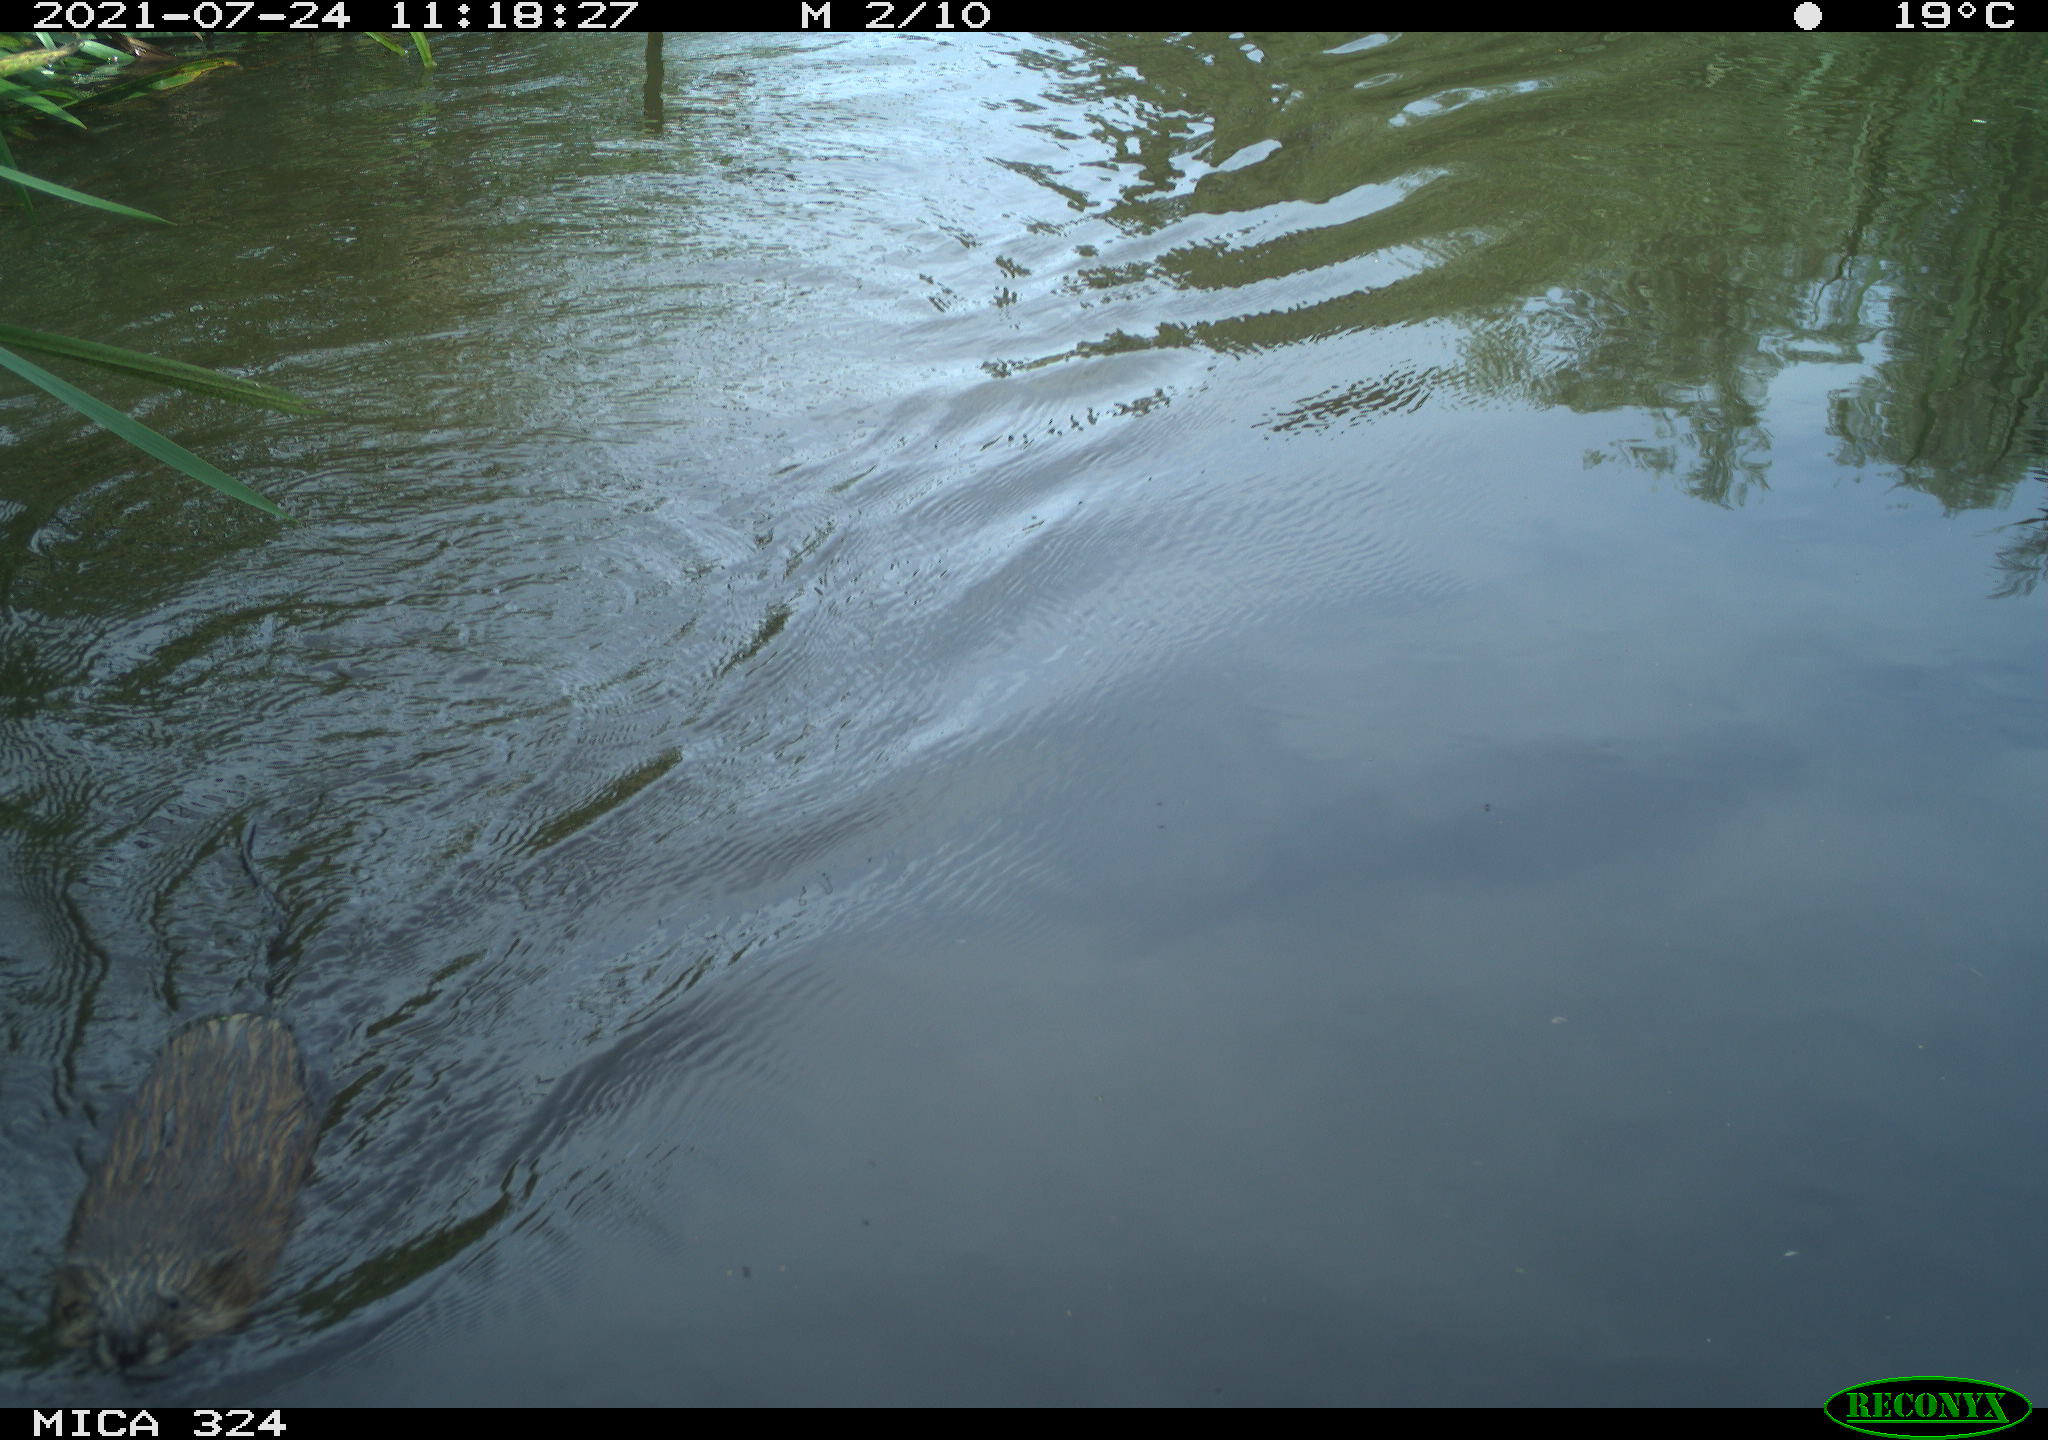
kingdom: Animalia
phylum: Chordata
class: Mammalia
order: Rodentia
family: Cricetidae
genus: Ondatra
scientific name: Ondatra zibethicus
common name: Muskrat
